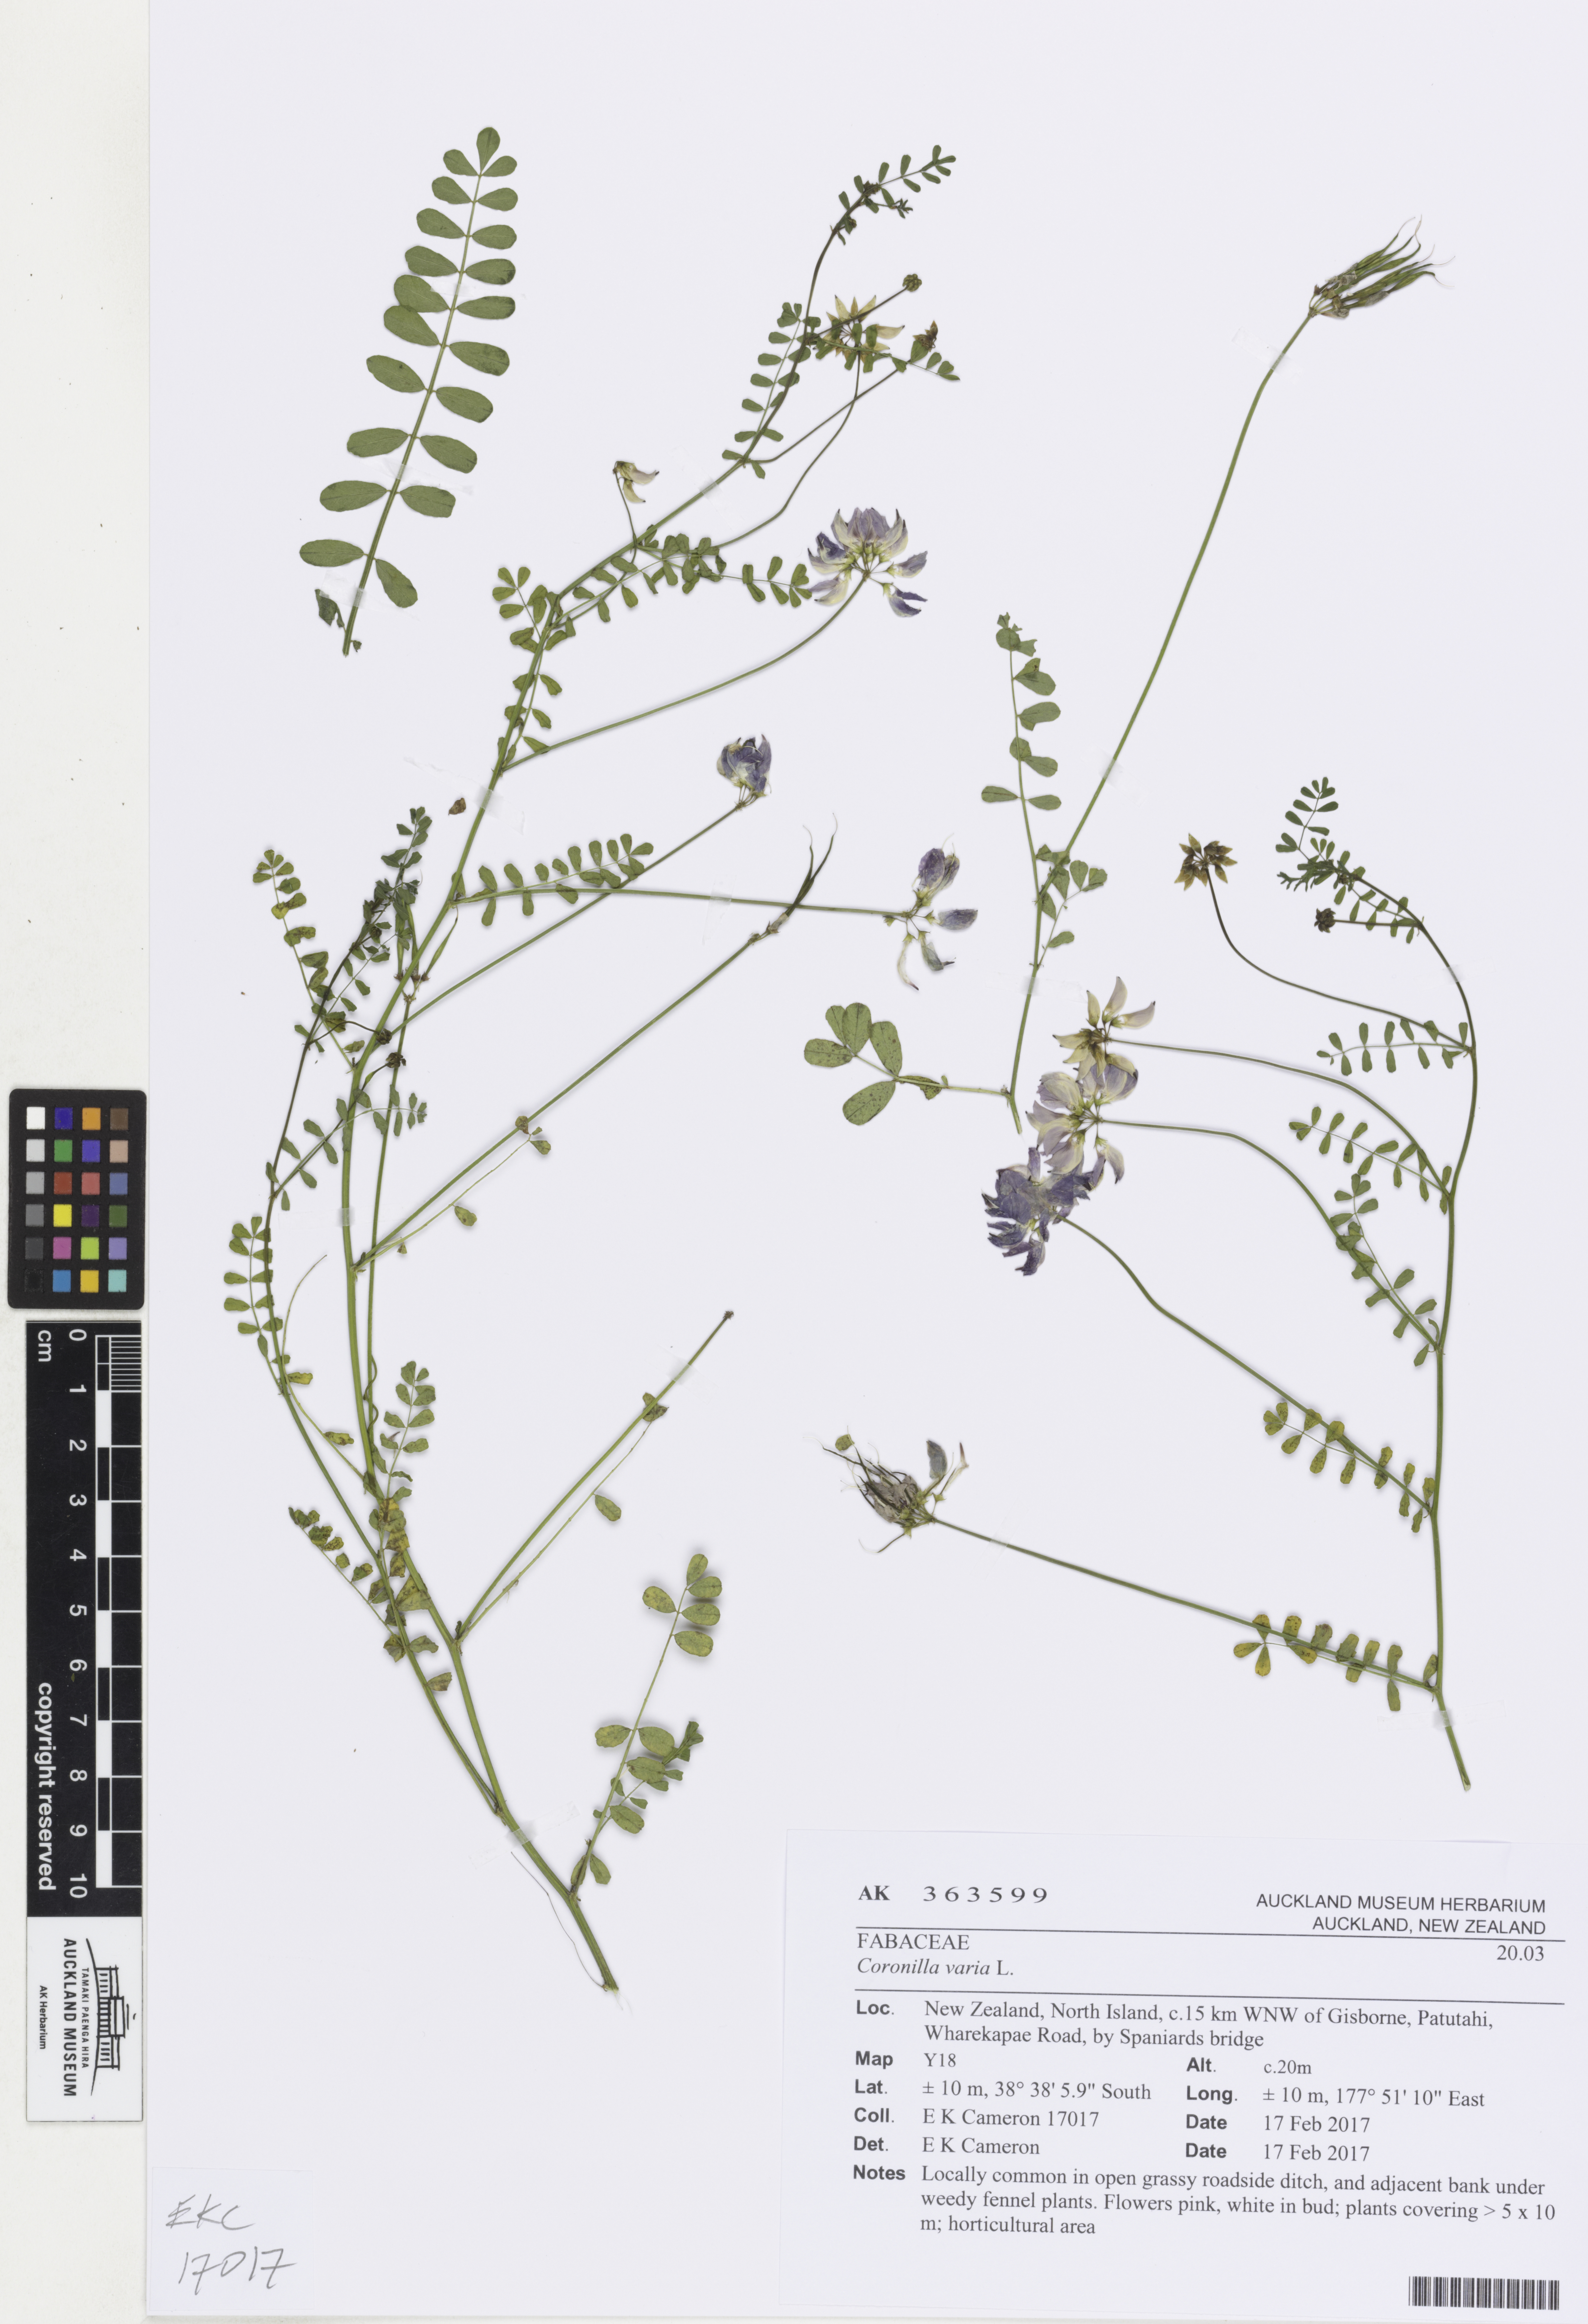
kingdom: Plantae
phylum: Tracheophyta
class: Magnoliopsida
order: Fabales
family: Fabaceae
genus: Coronilla
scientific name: Coronilla varia
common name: Crownvetch
